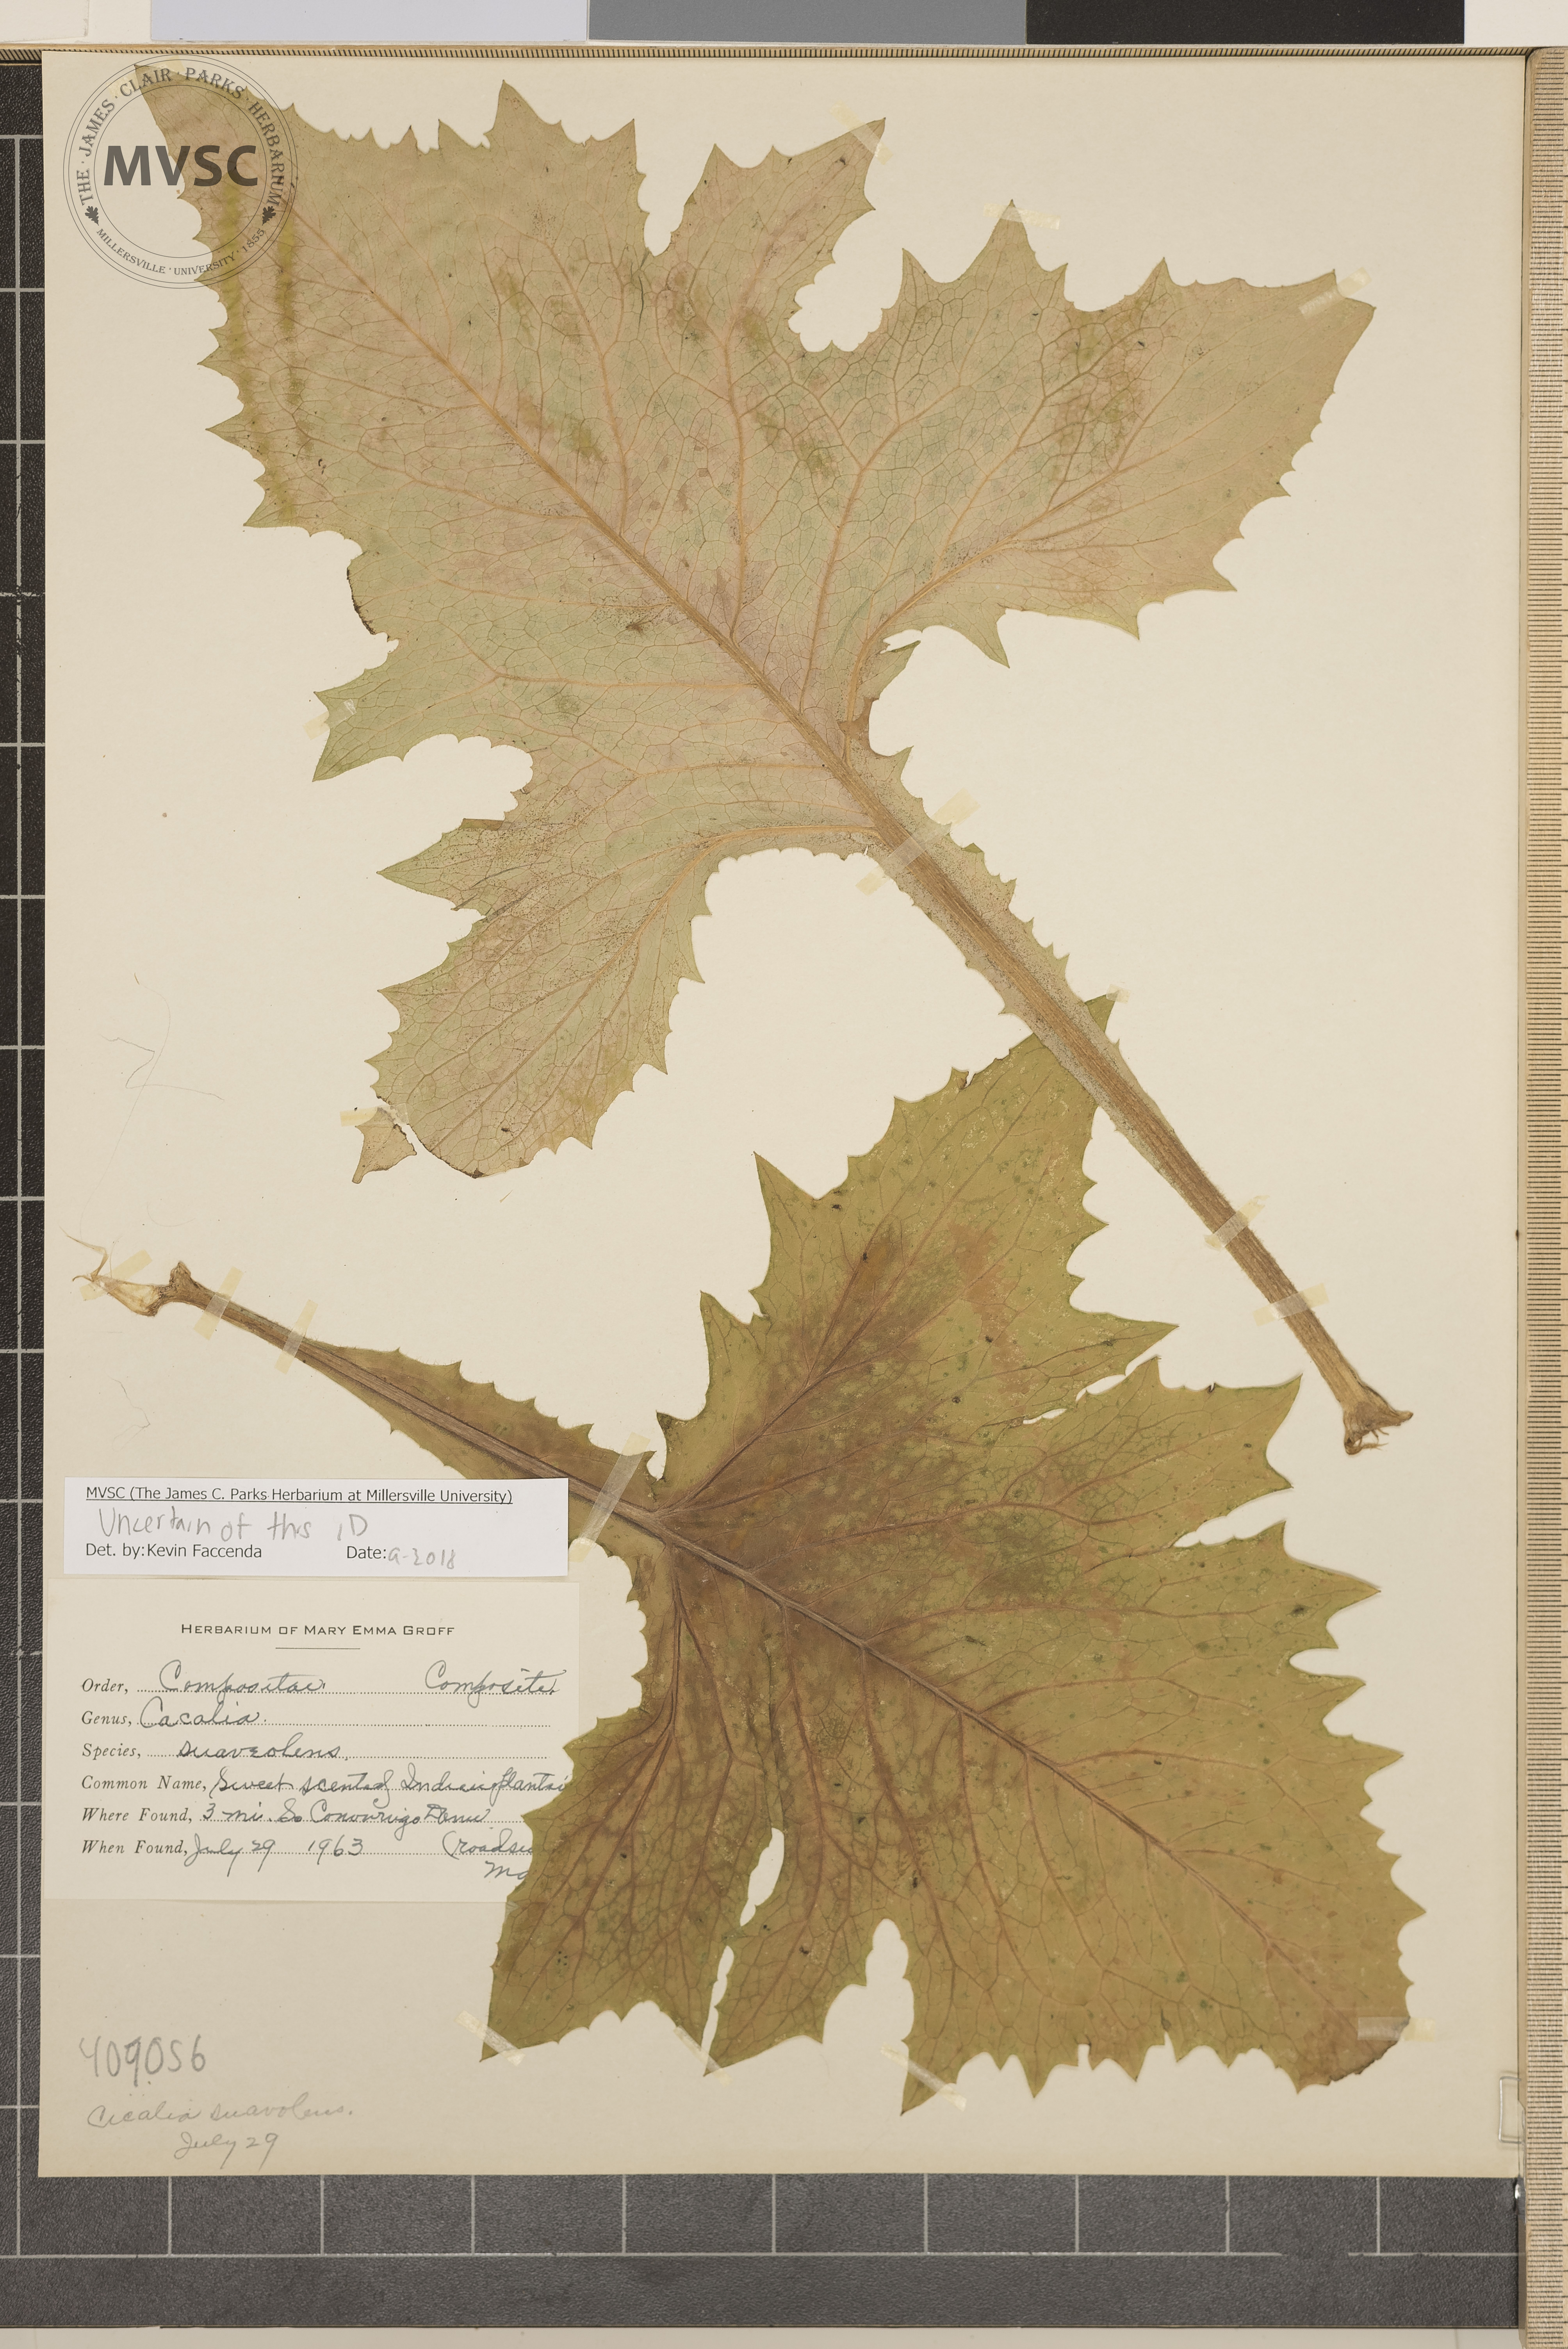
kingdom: Plantae
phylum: Tracheophyta
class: Magnoliopsida
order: Asterales
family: Asteraceae
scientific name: Asteraceae
